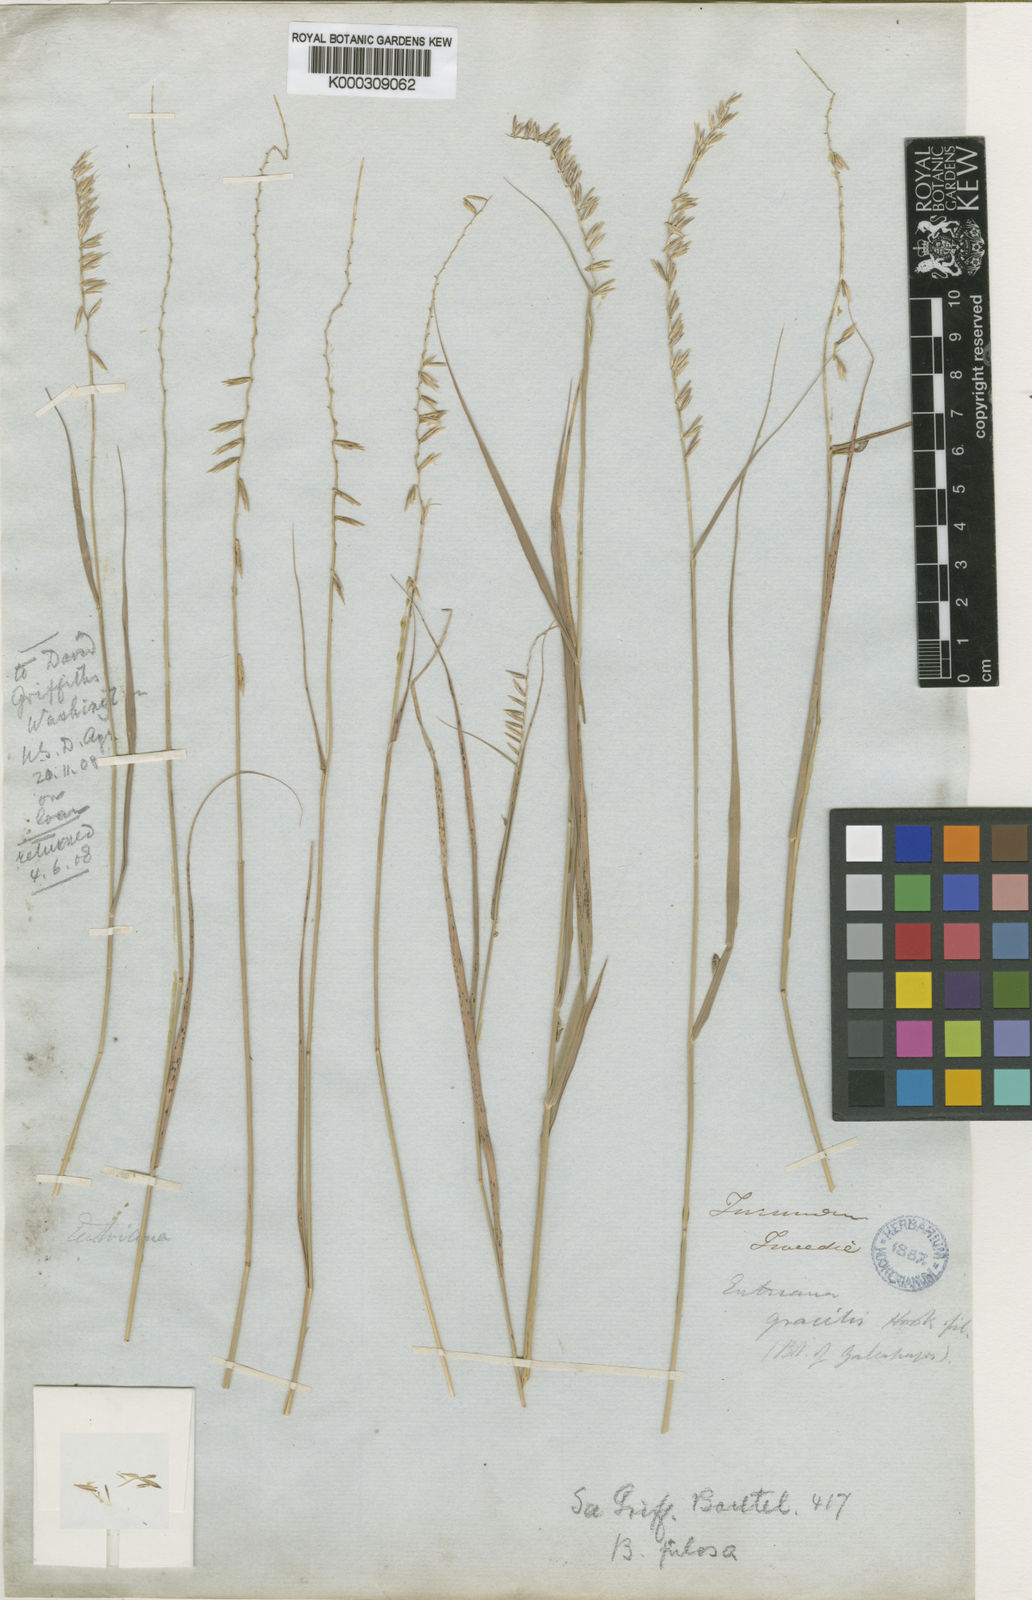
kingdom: Plantae
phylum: Tracheophyta
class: Liliopsida
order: Poales
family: Poaceae
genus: Bouteloua
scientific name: Bouteloua curtipendula
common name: Side-oats grama
